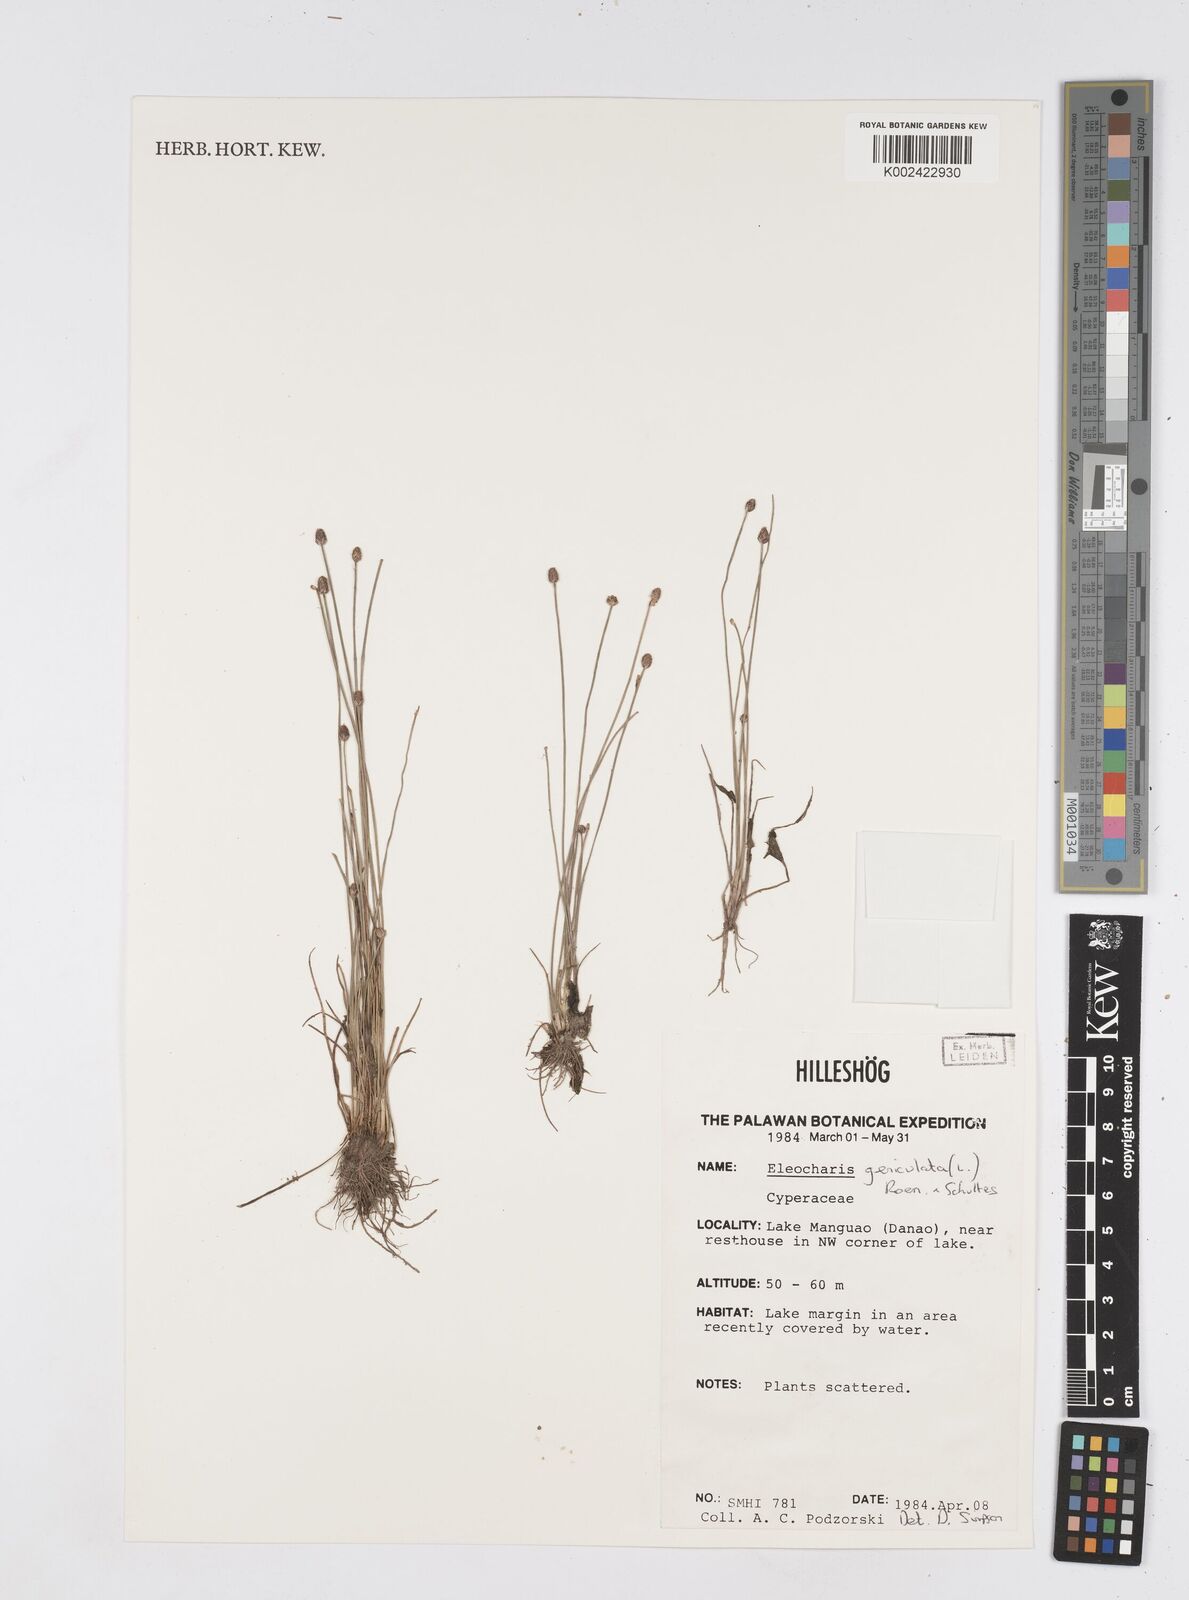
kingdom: Plantae
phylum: Tracheophyta
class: Liliopsida
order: Poales
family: Cyperaceae
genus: Eleocharis
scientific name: Eleocharis geniculata
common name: Canada spikesedge
